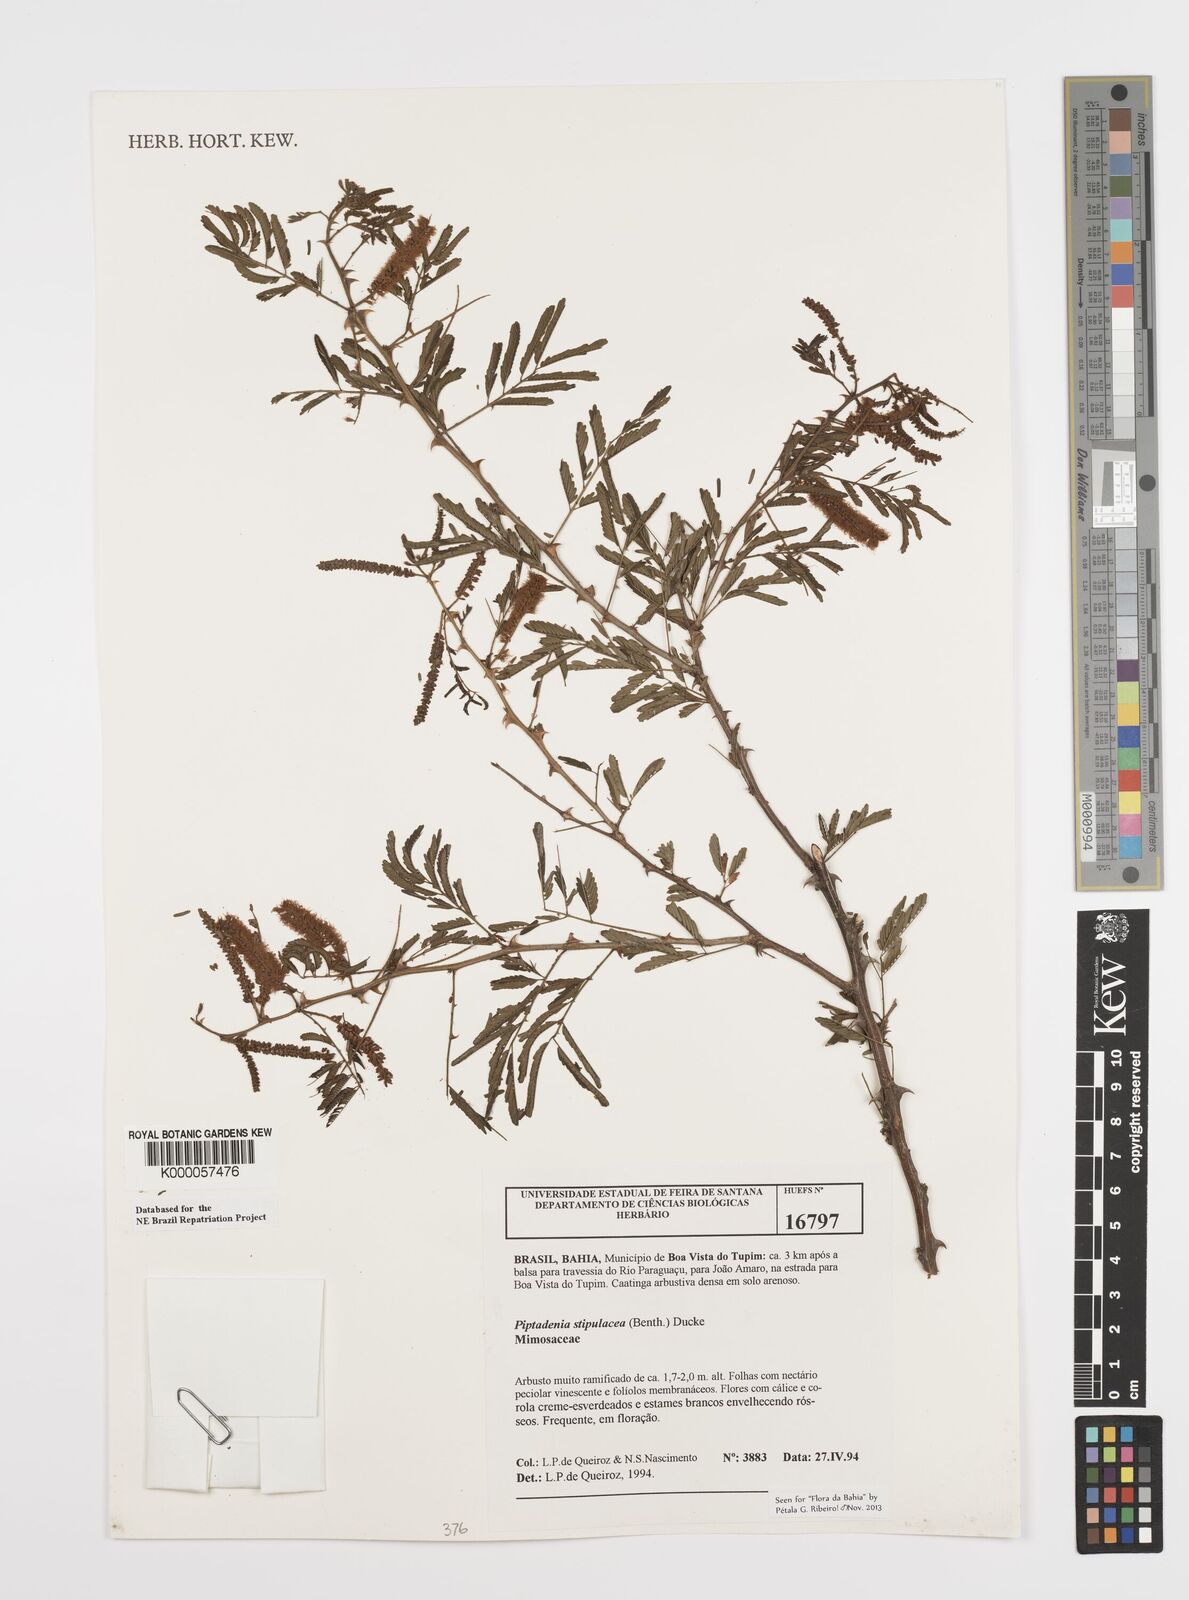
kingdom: Plantae
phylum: Tracheophyta
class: Magnoliopsida
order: Fabales
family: Fabaceae
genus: Piptadenia
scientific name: Piptadenia retusa
